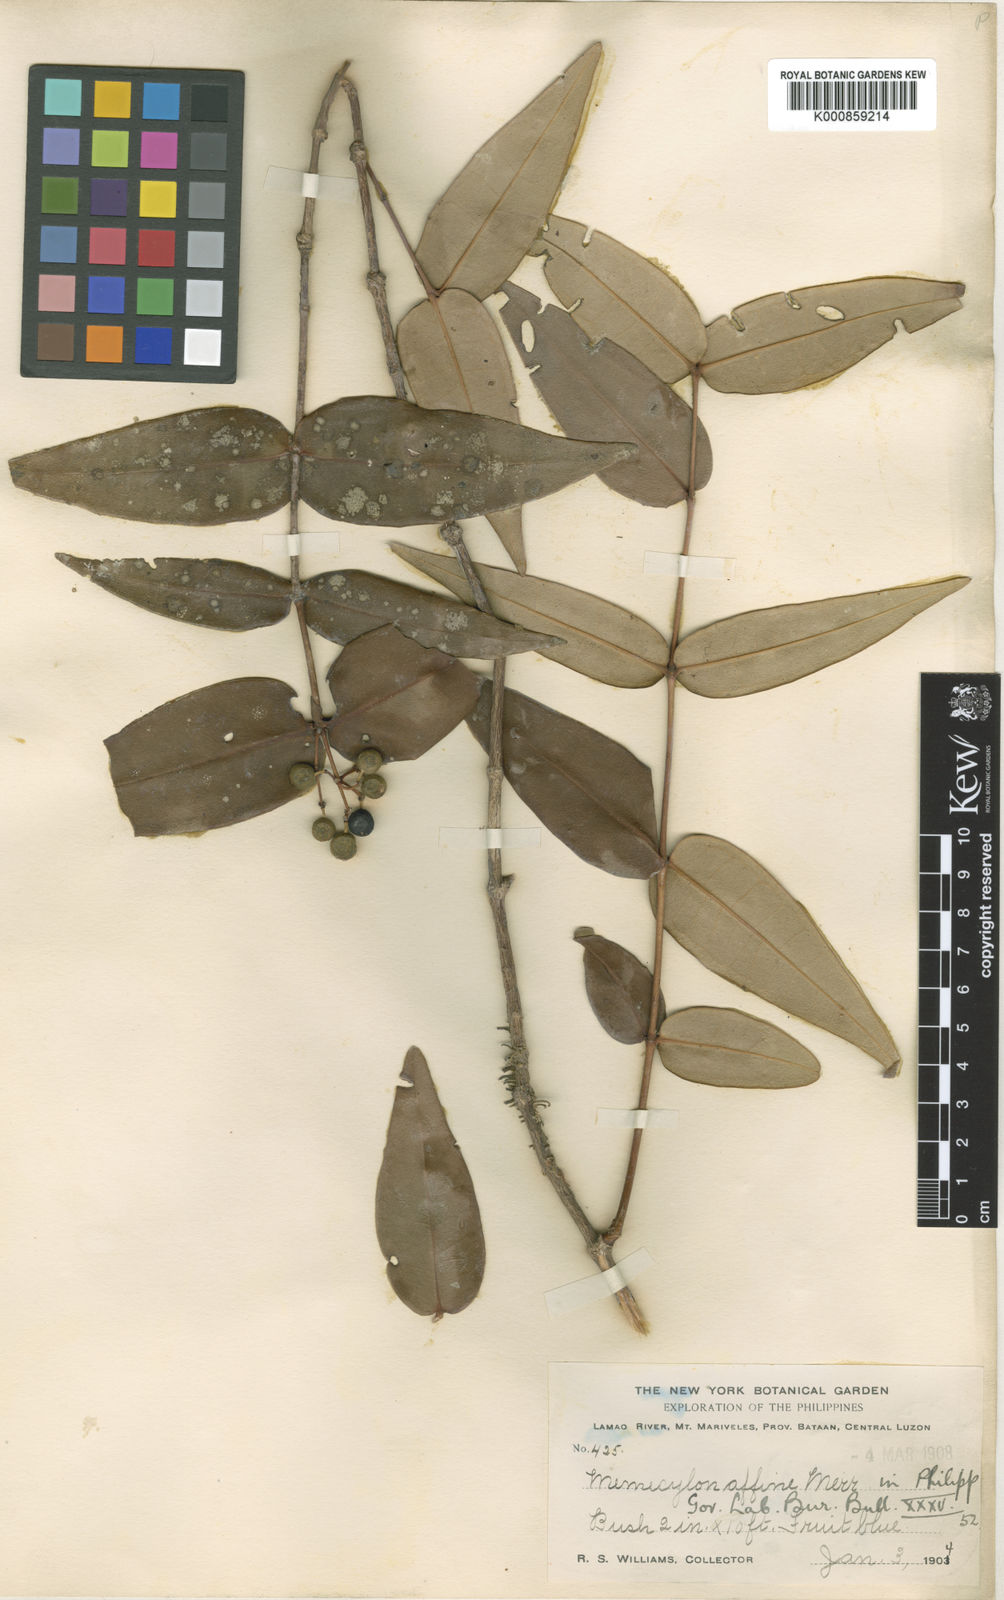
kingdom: Plantae
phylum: Tracheophyta
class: Magnoliopsida
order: Myrtales
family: Melastomataceae
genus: Memecylon
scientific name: Memecylon affine
